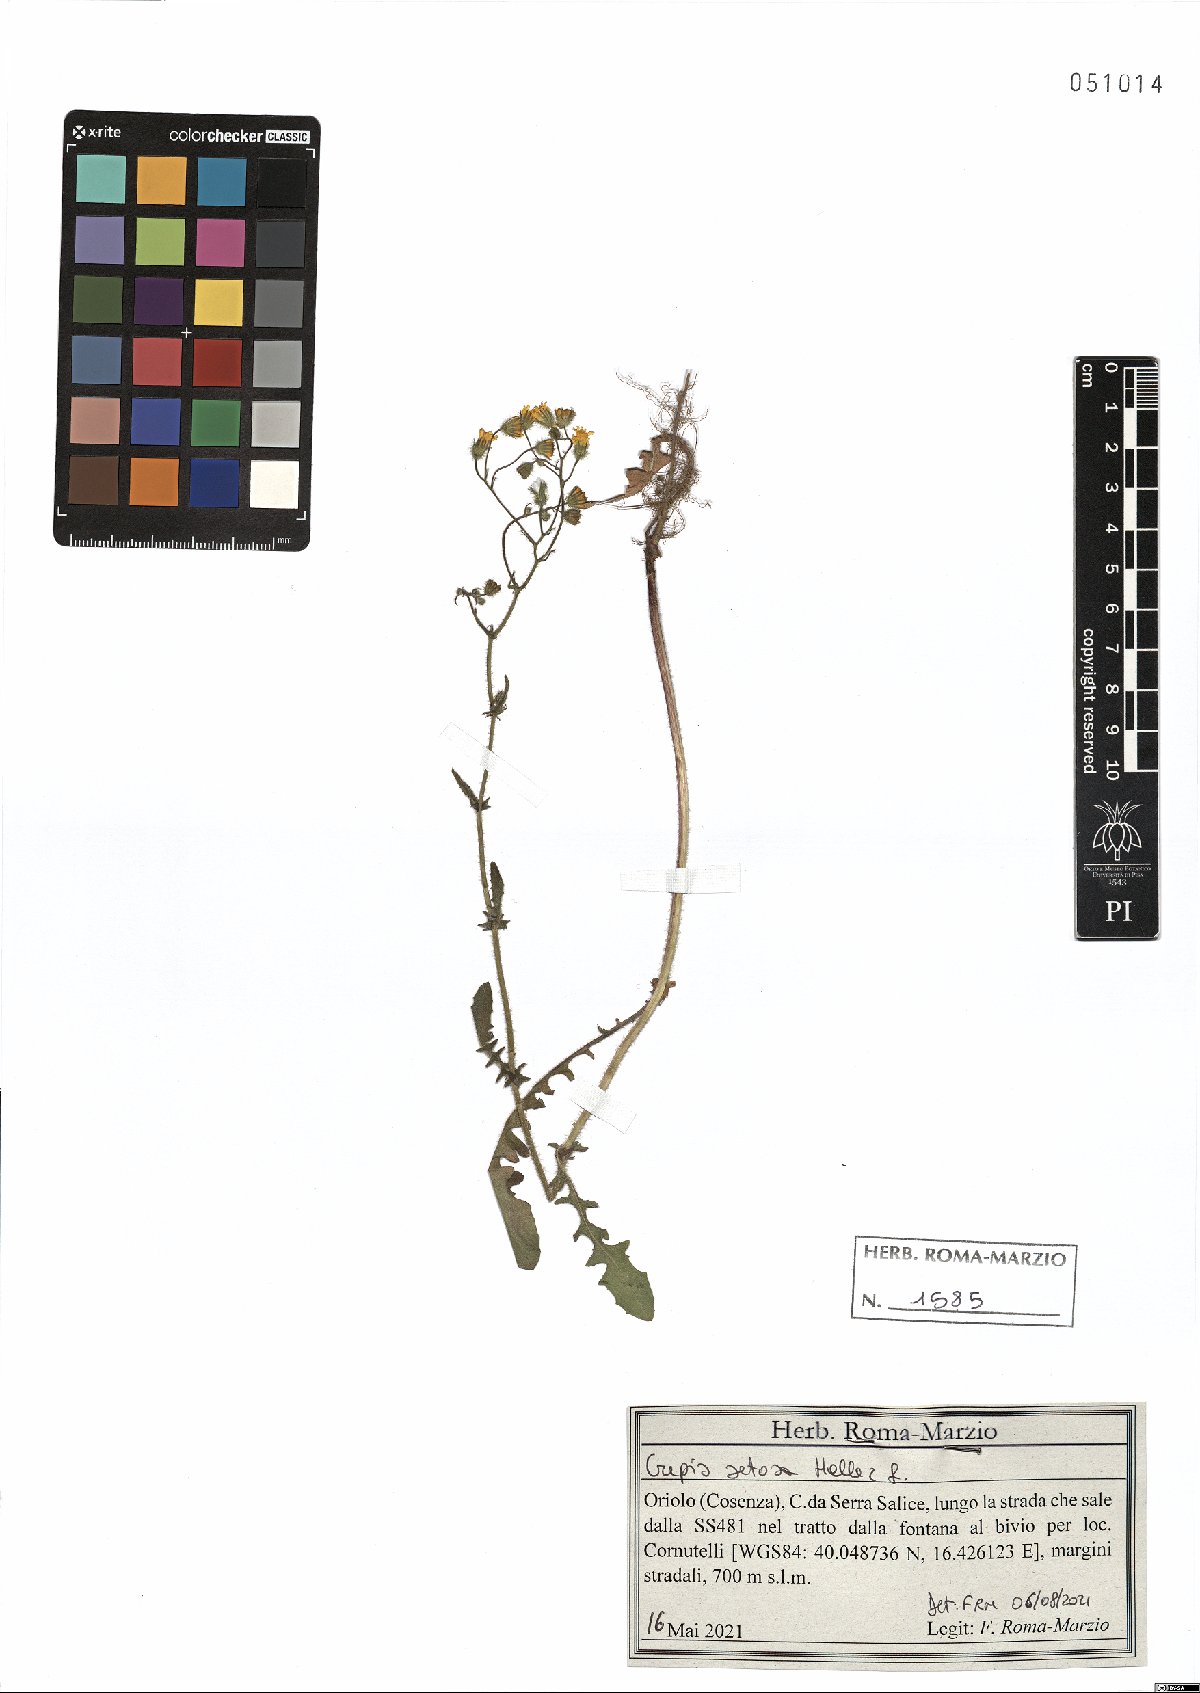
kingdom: Plantae
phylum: Tracheophyta
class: Magnoliopsida
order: Asterales
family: Asteraceae
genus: Crepis
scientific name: Crepis setosa
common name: Bristly hawk's-beard
